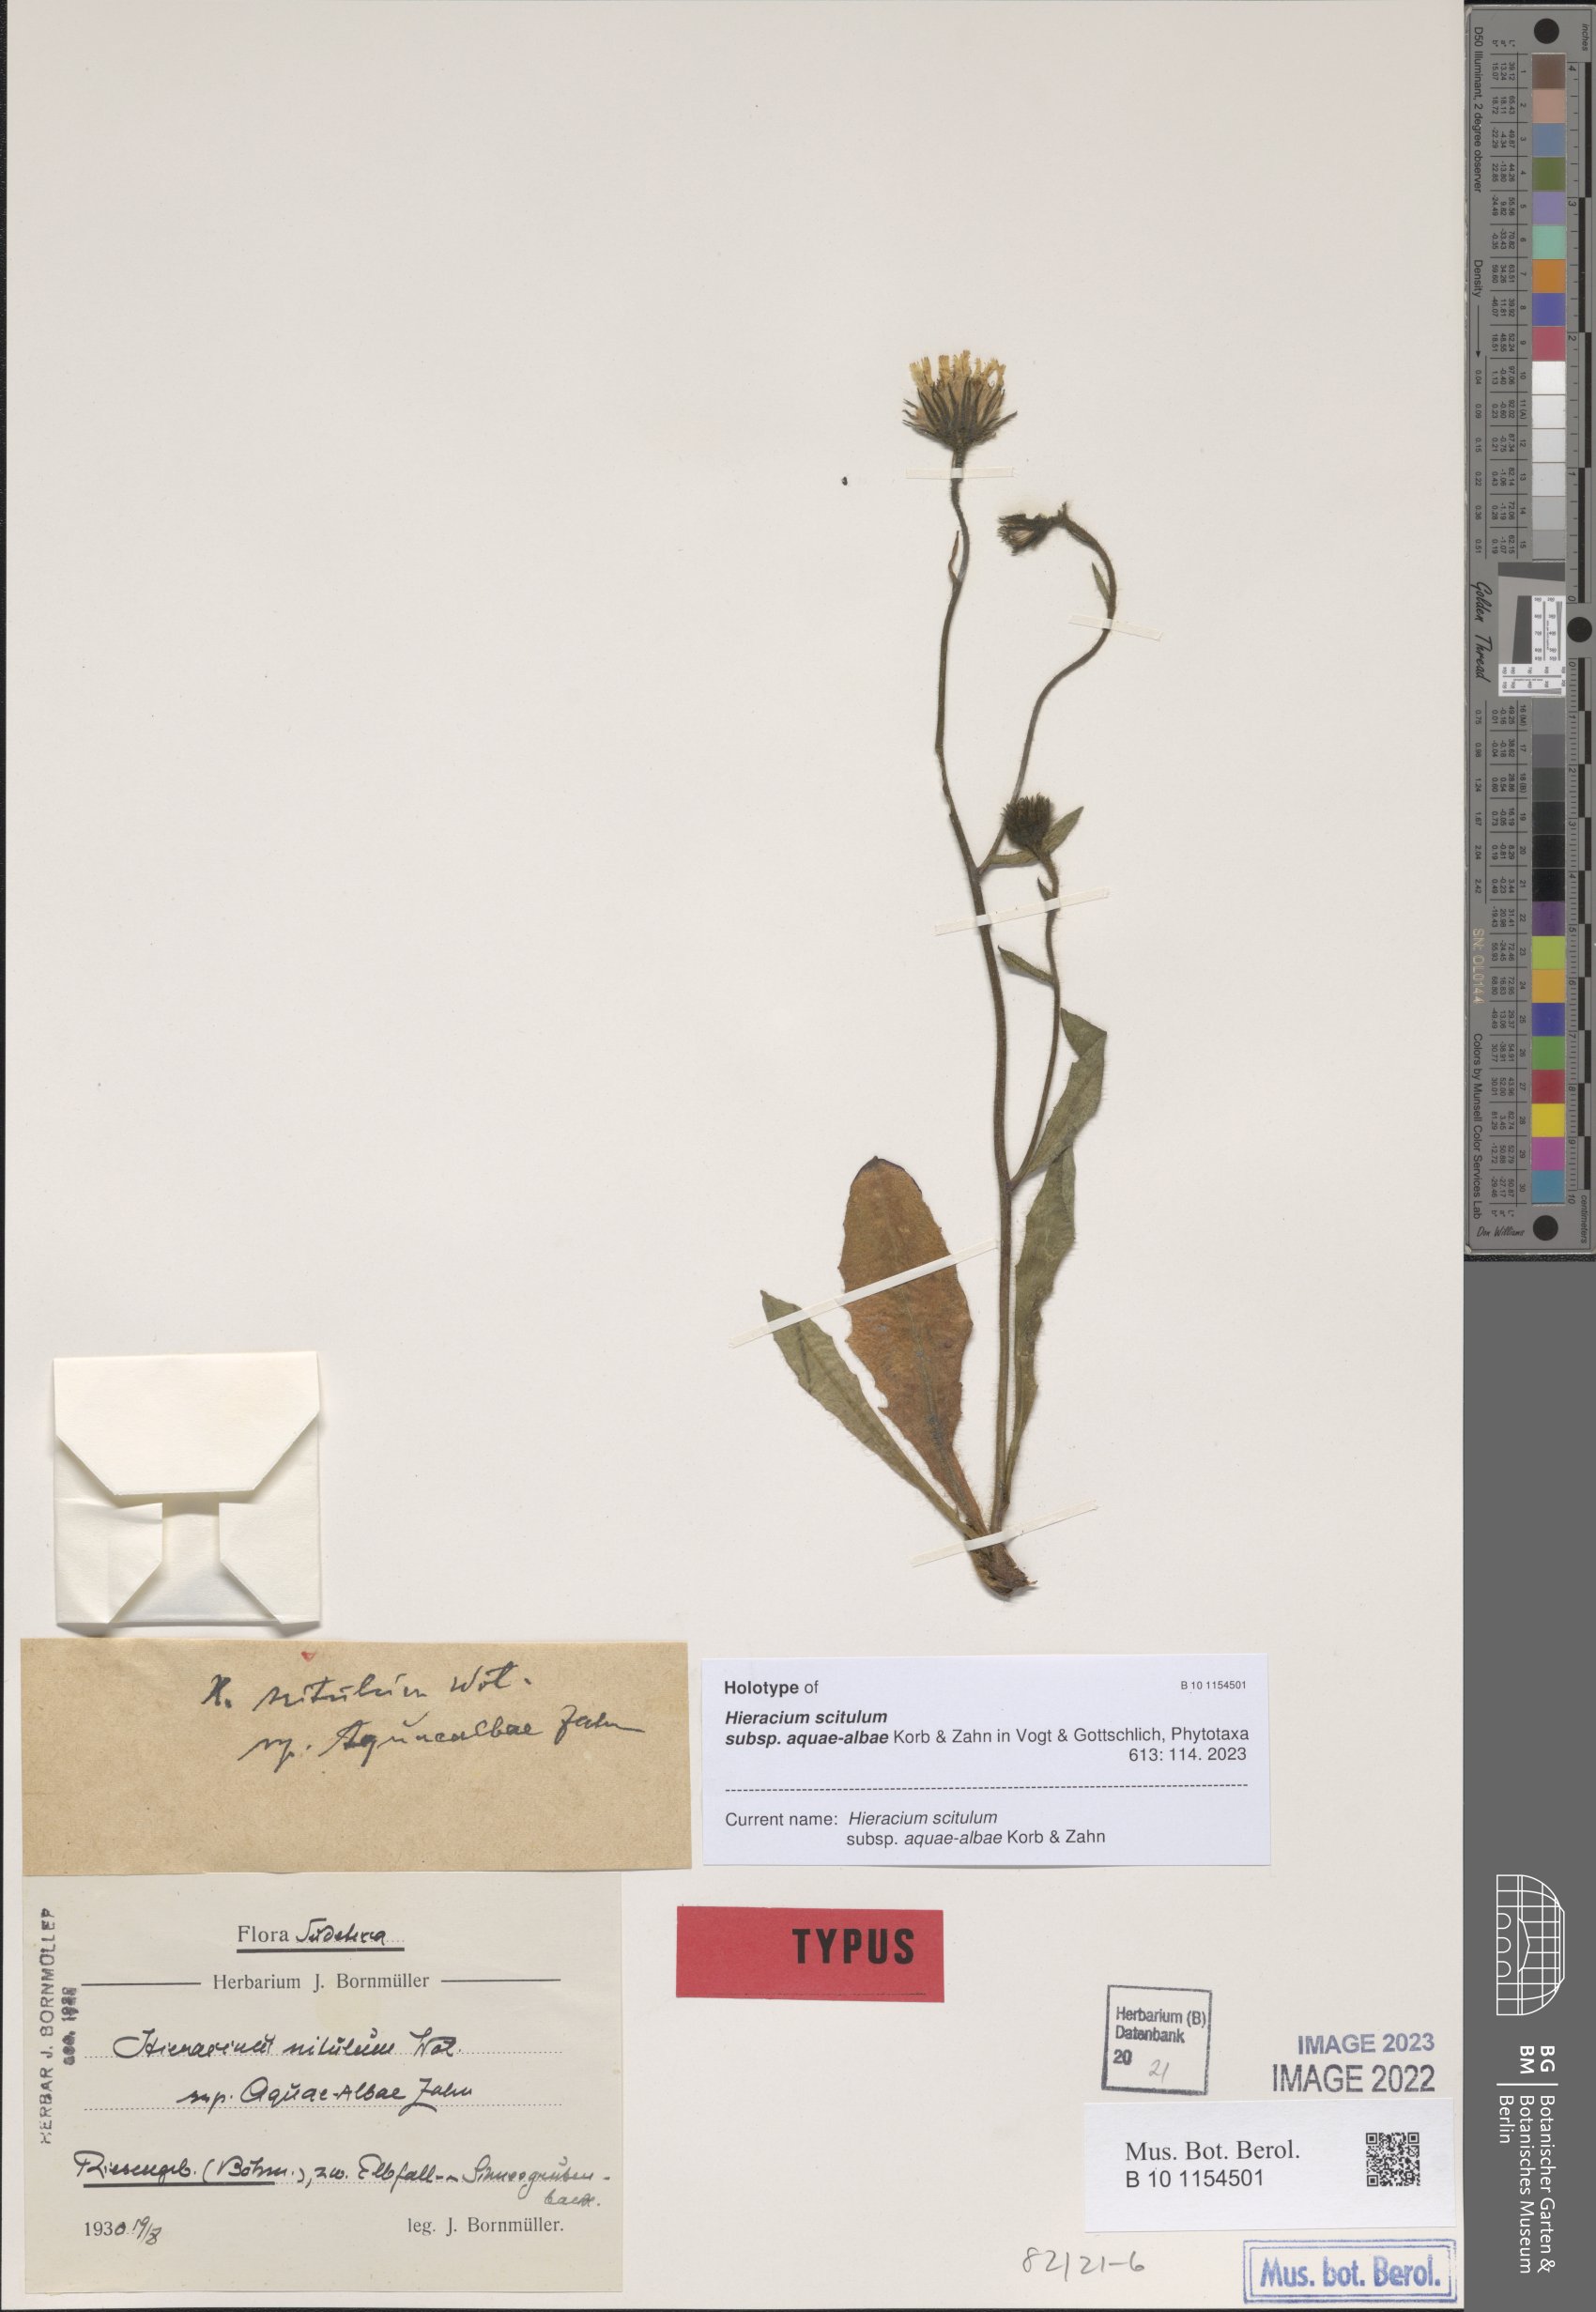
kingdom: Plantae
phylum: Tracheophyta
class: Magnoliopsida
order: Asterales
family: Asteraceae
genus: Hieracium
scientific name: Hieracium scitulum
